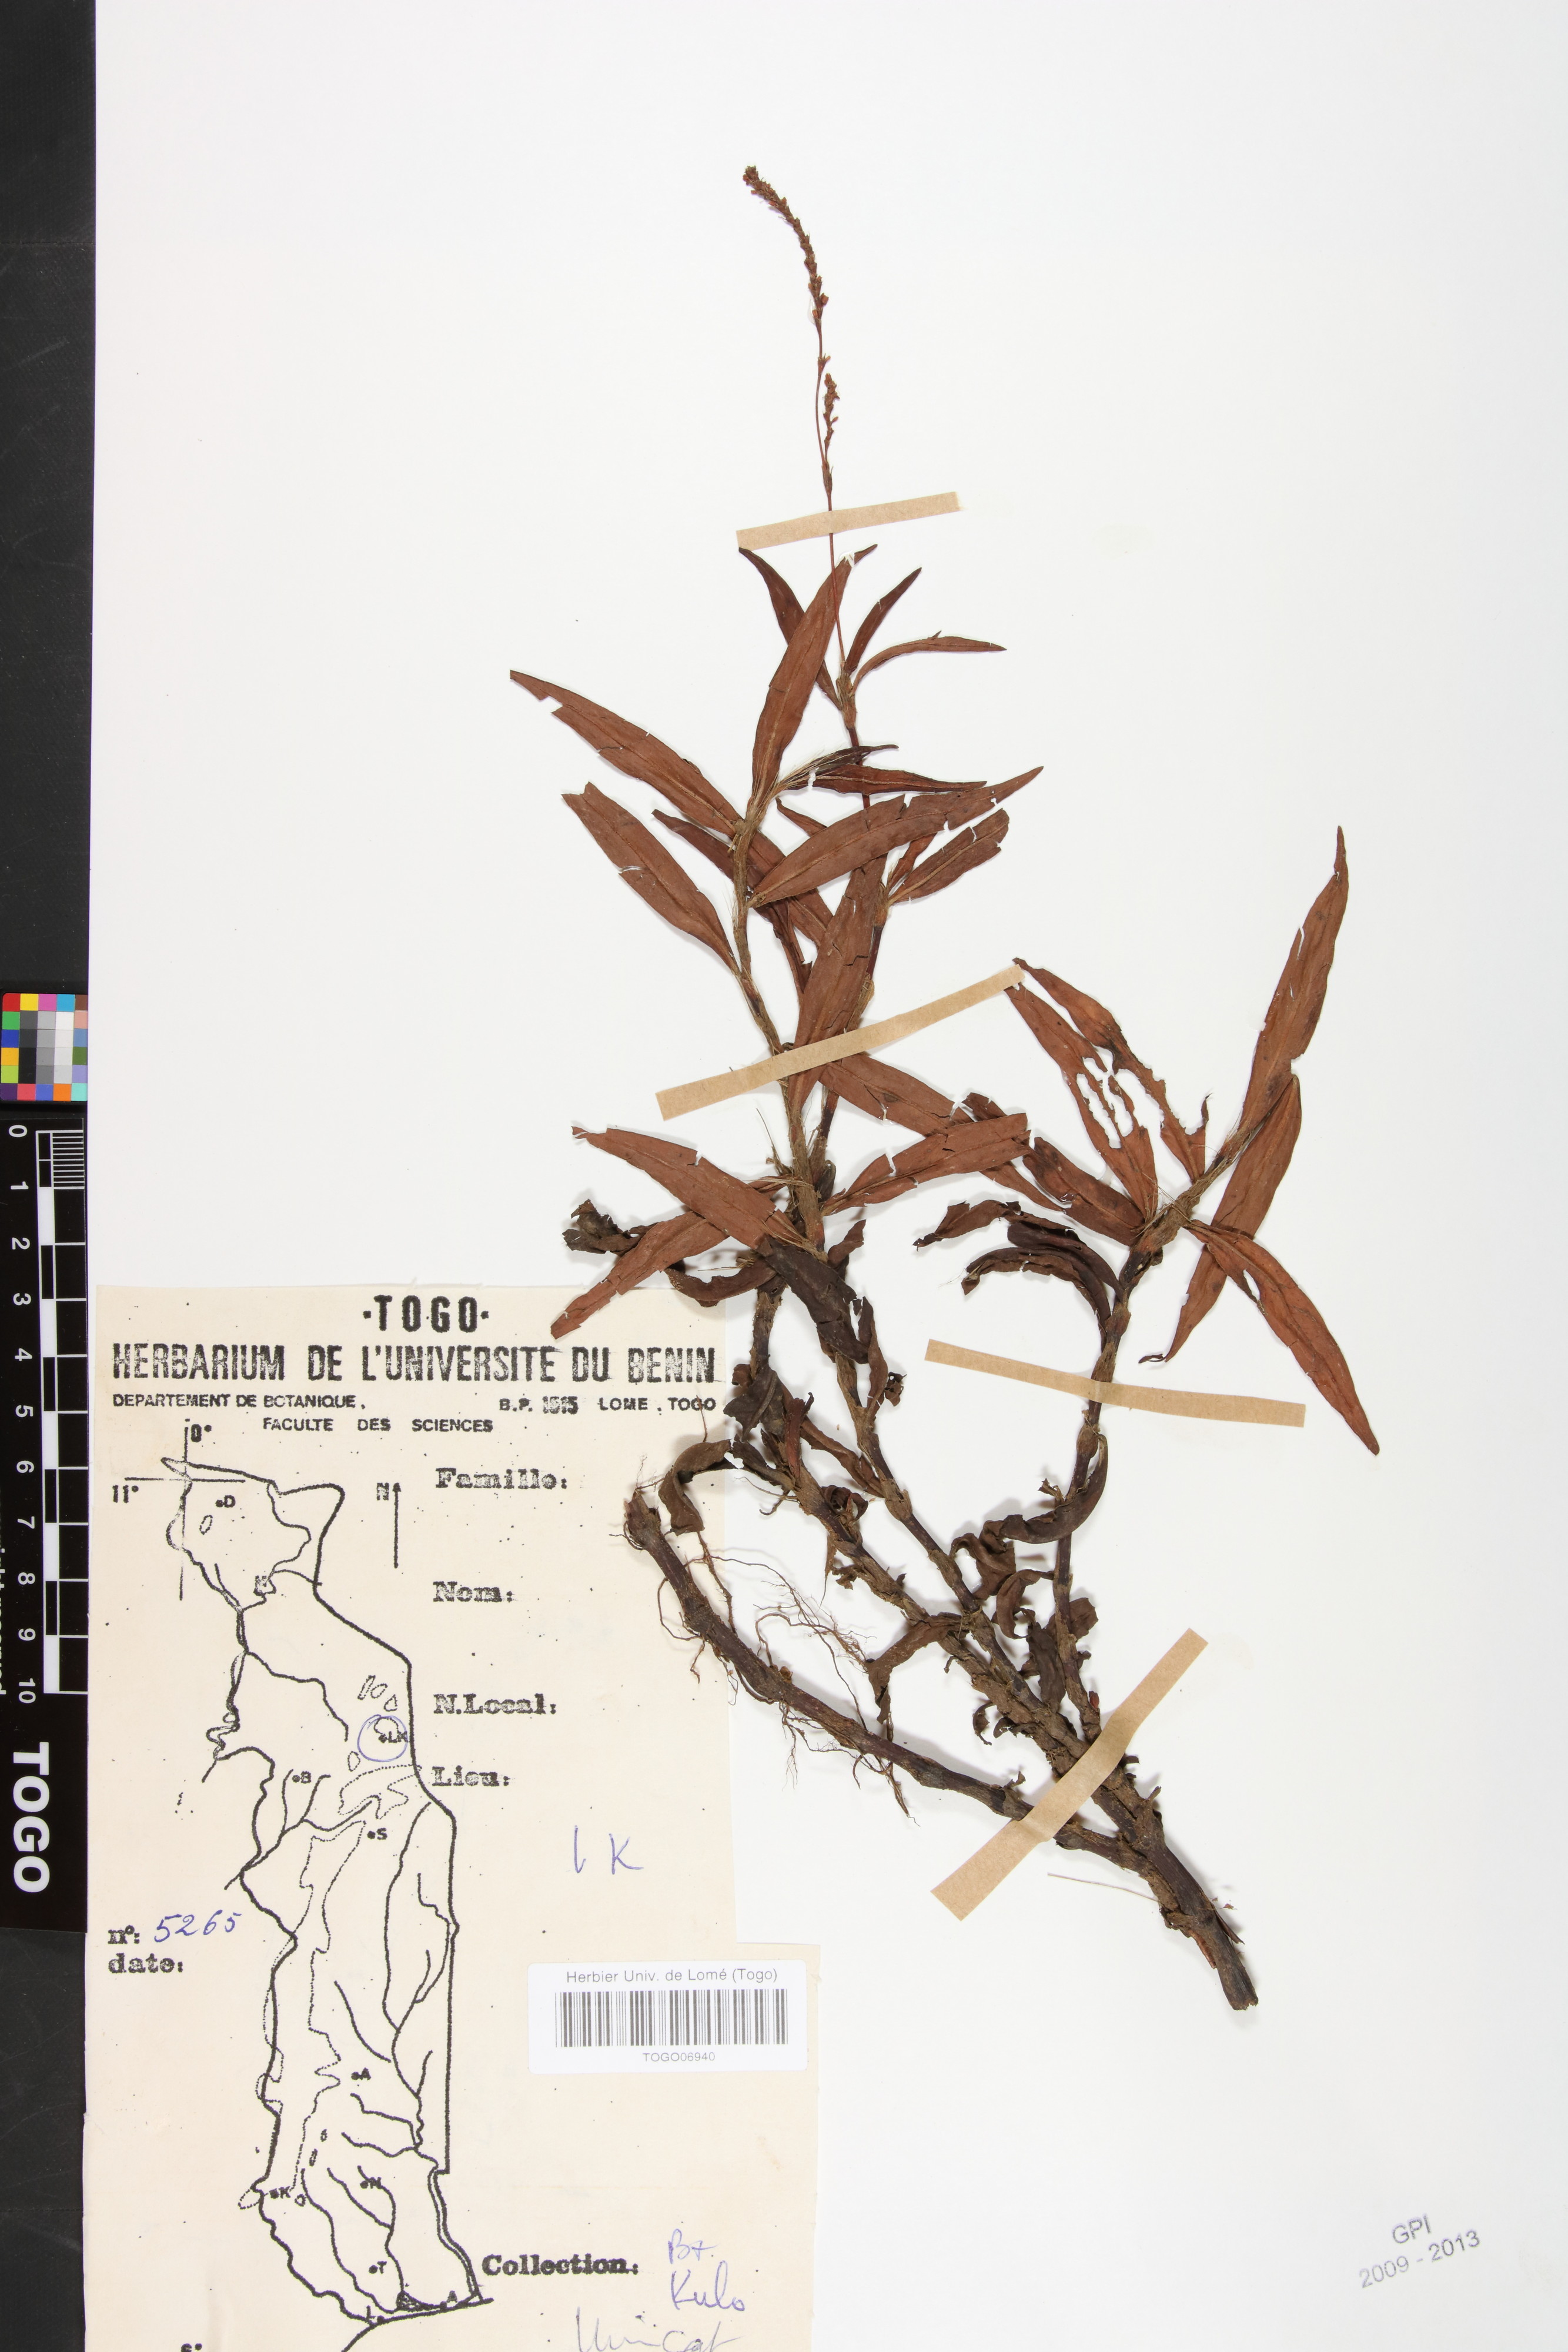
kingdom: Plantae
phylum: Tracheophyta
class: Magnoliopsida
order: Caryophyllales
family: Polygonaceae
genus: Persicaria
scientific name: Persicaria salicifolia
